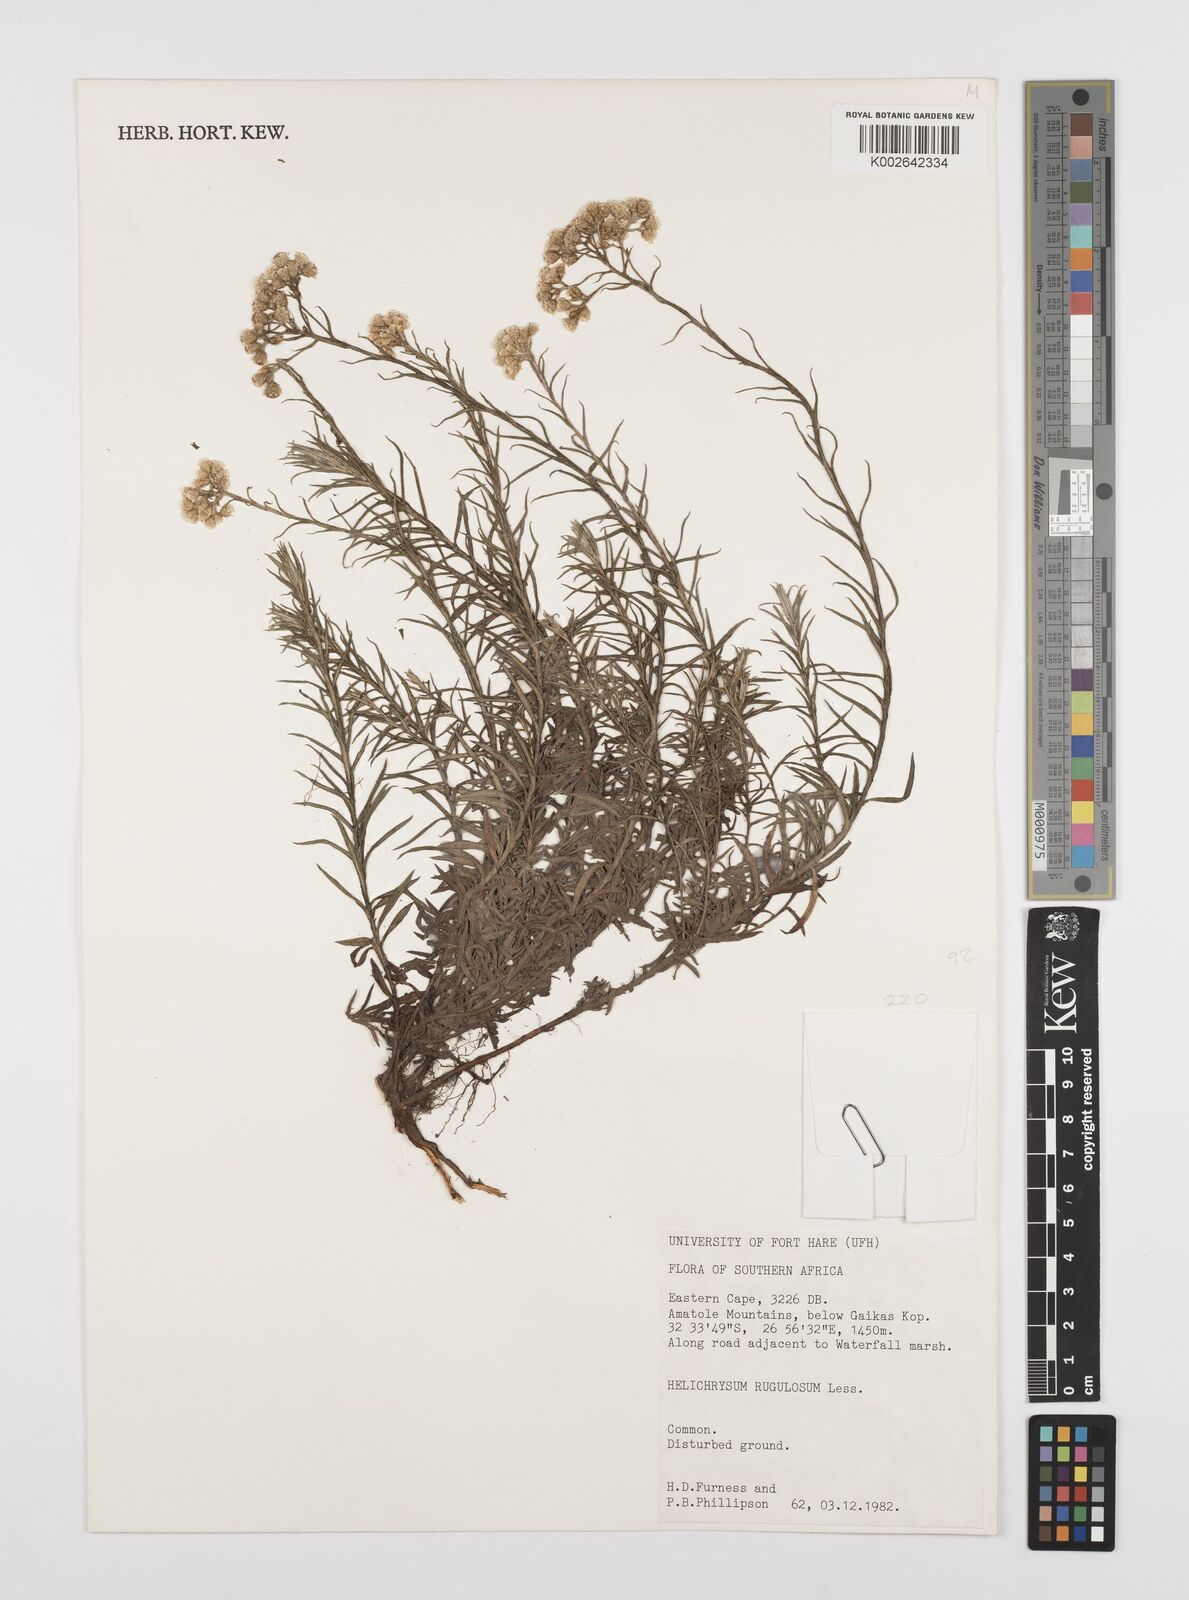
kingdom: Plantae
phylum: Tracheophyta
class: Magnoliopsida
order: Asterales
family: Asteraceae
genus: Helichrysum
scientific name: Helichrysum rugulosum
